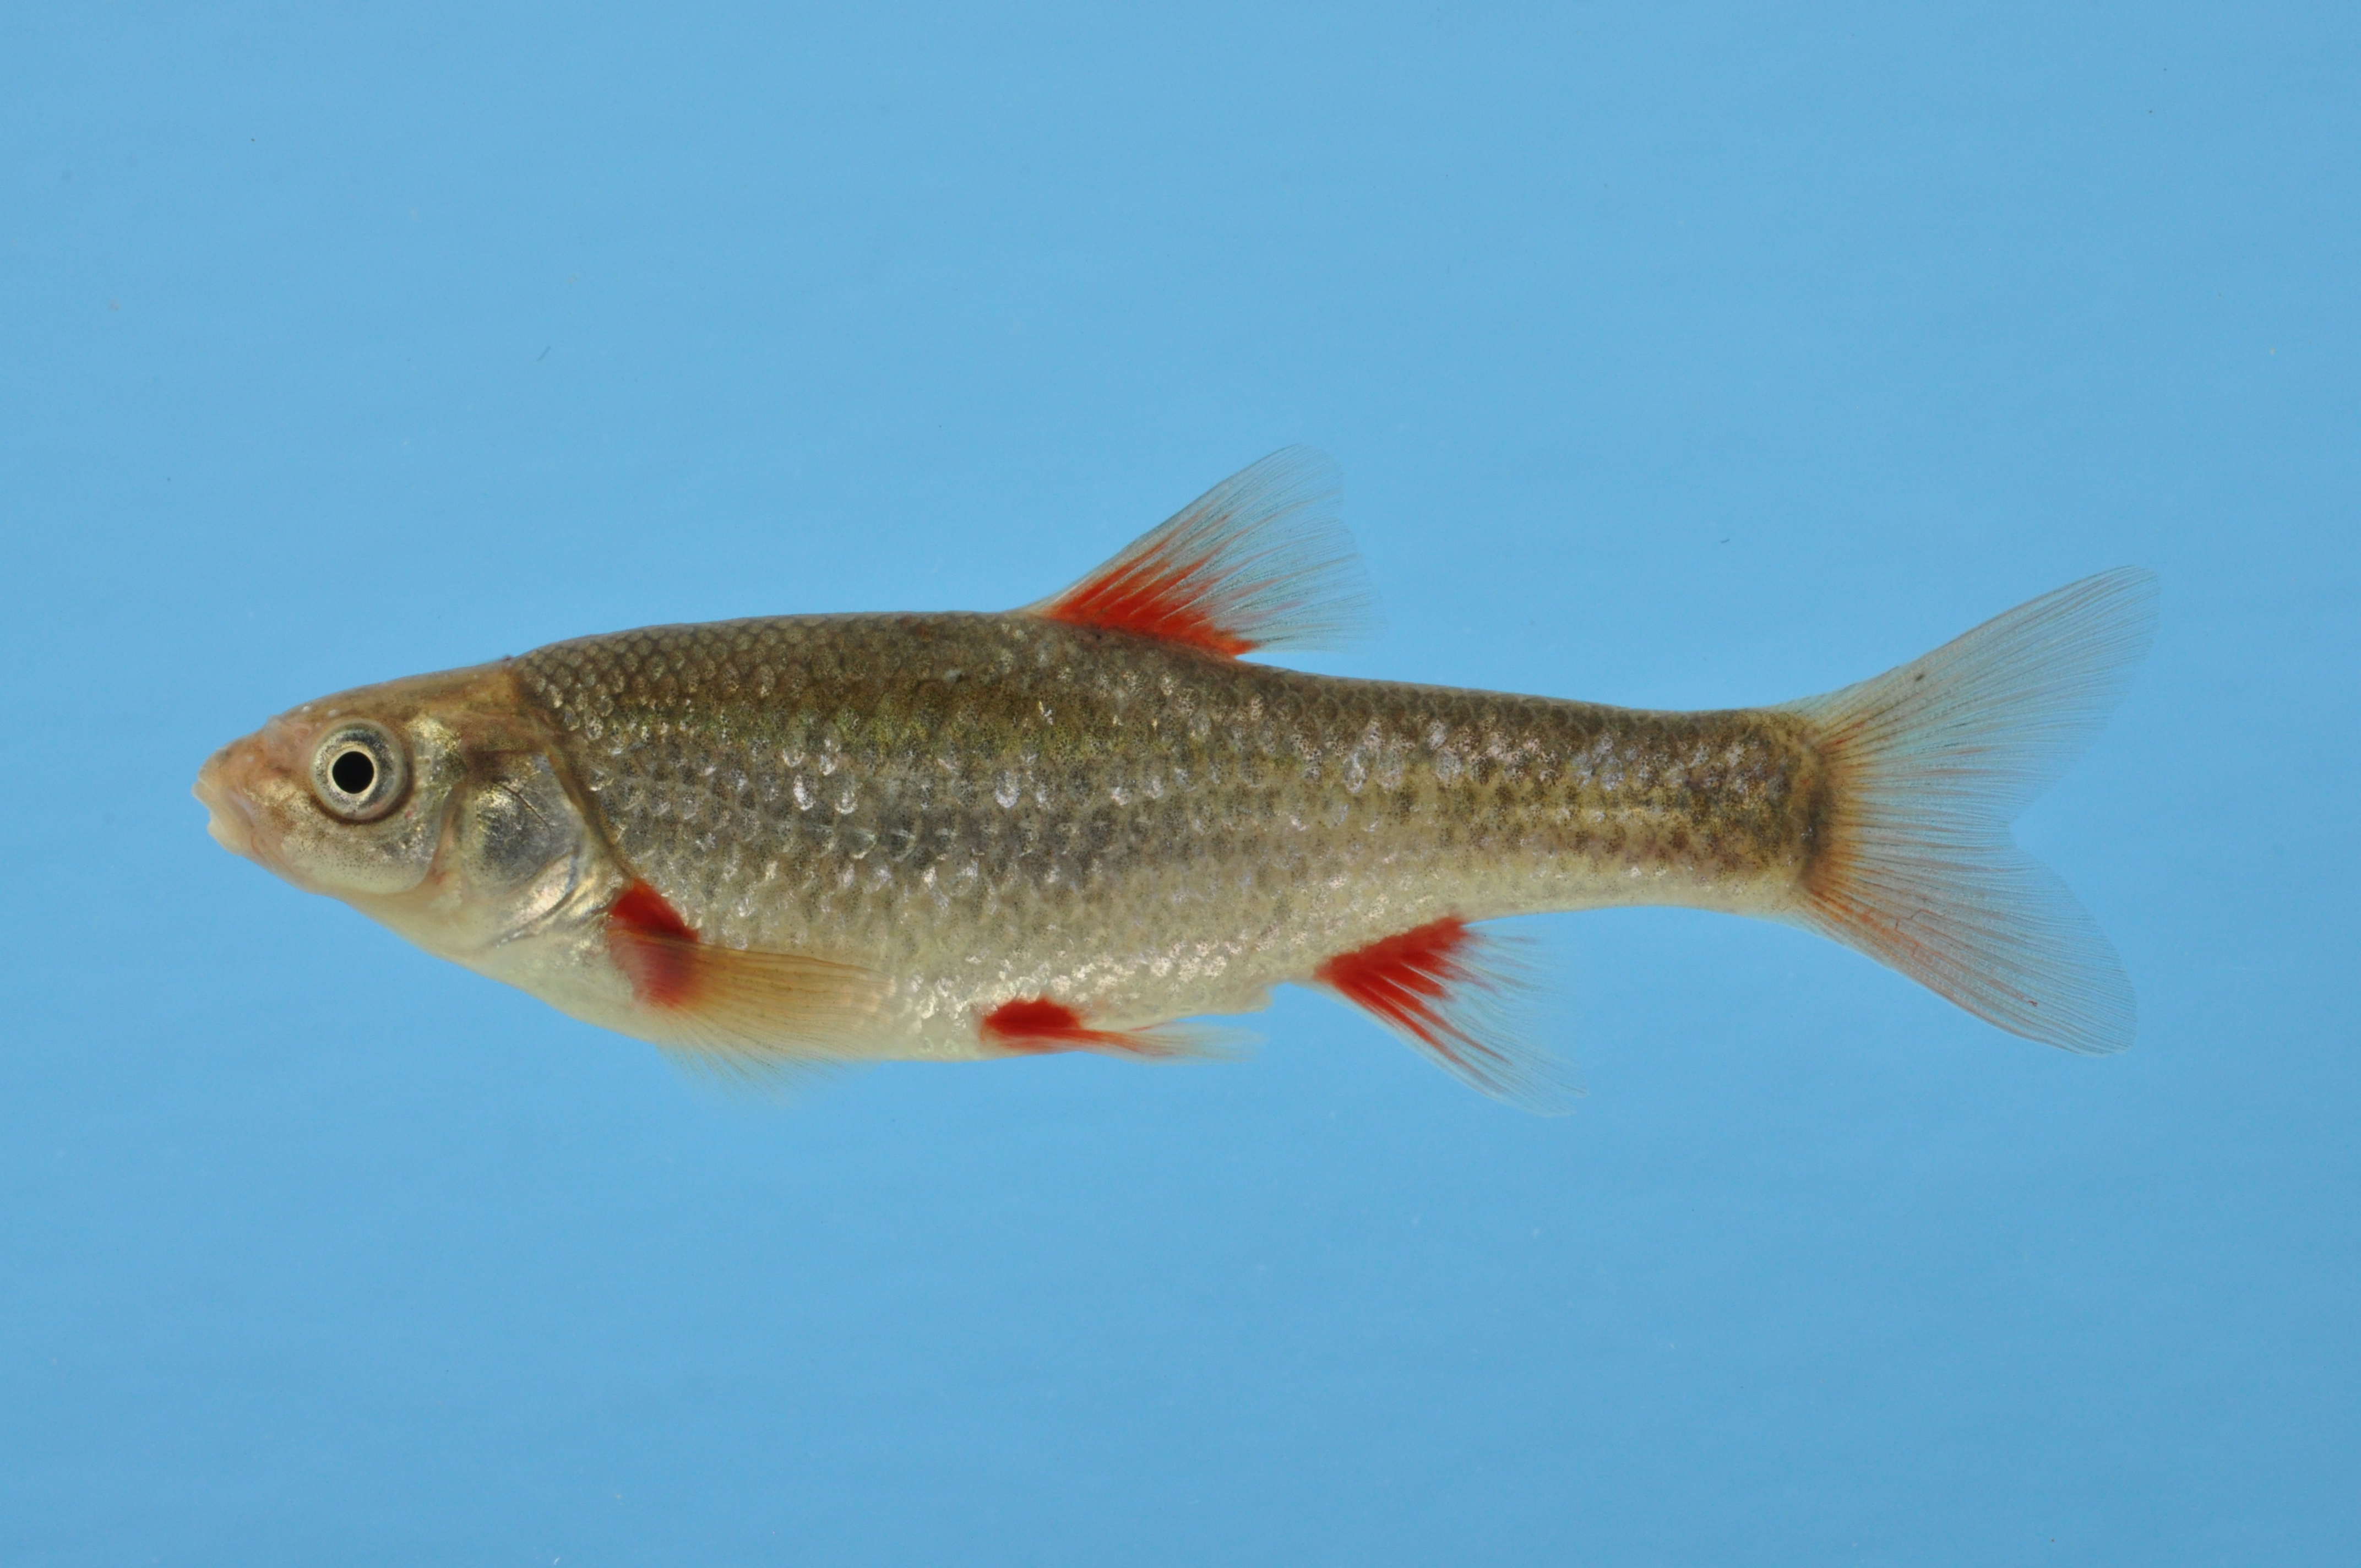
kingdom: Animalia
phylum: Chordata
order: Cypriniformes
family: Cyprinidae
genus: Pseudobarbus
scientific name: Pseudobarbus asper
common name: Smallscale redfin
